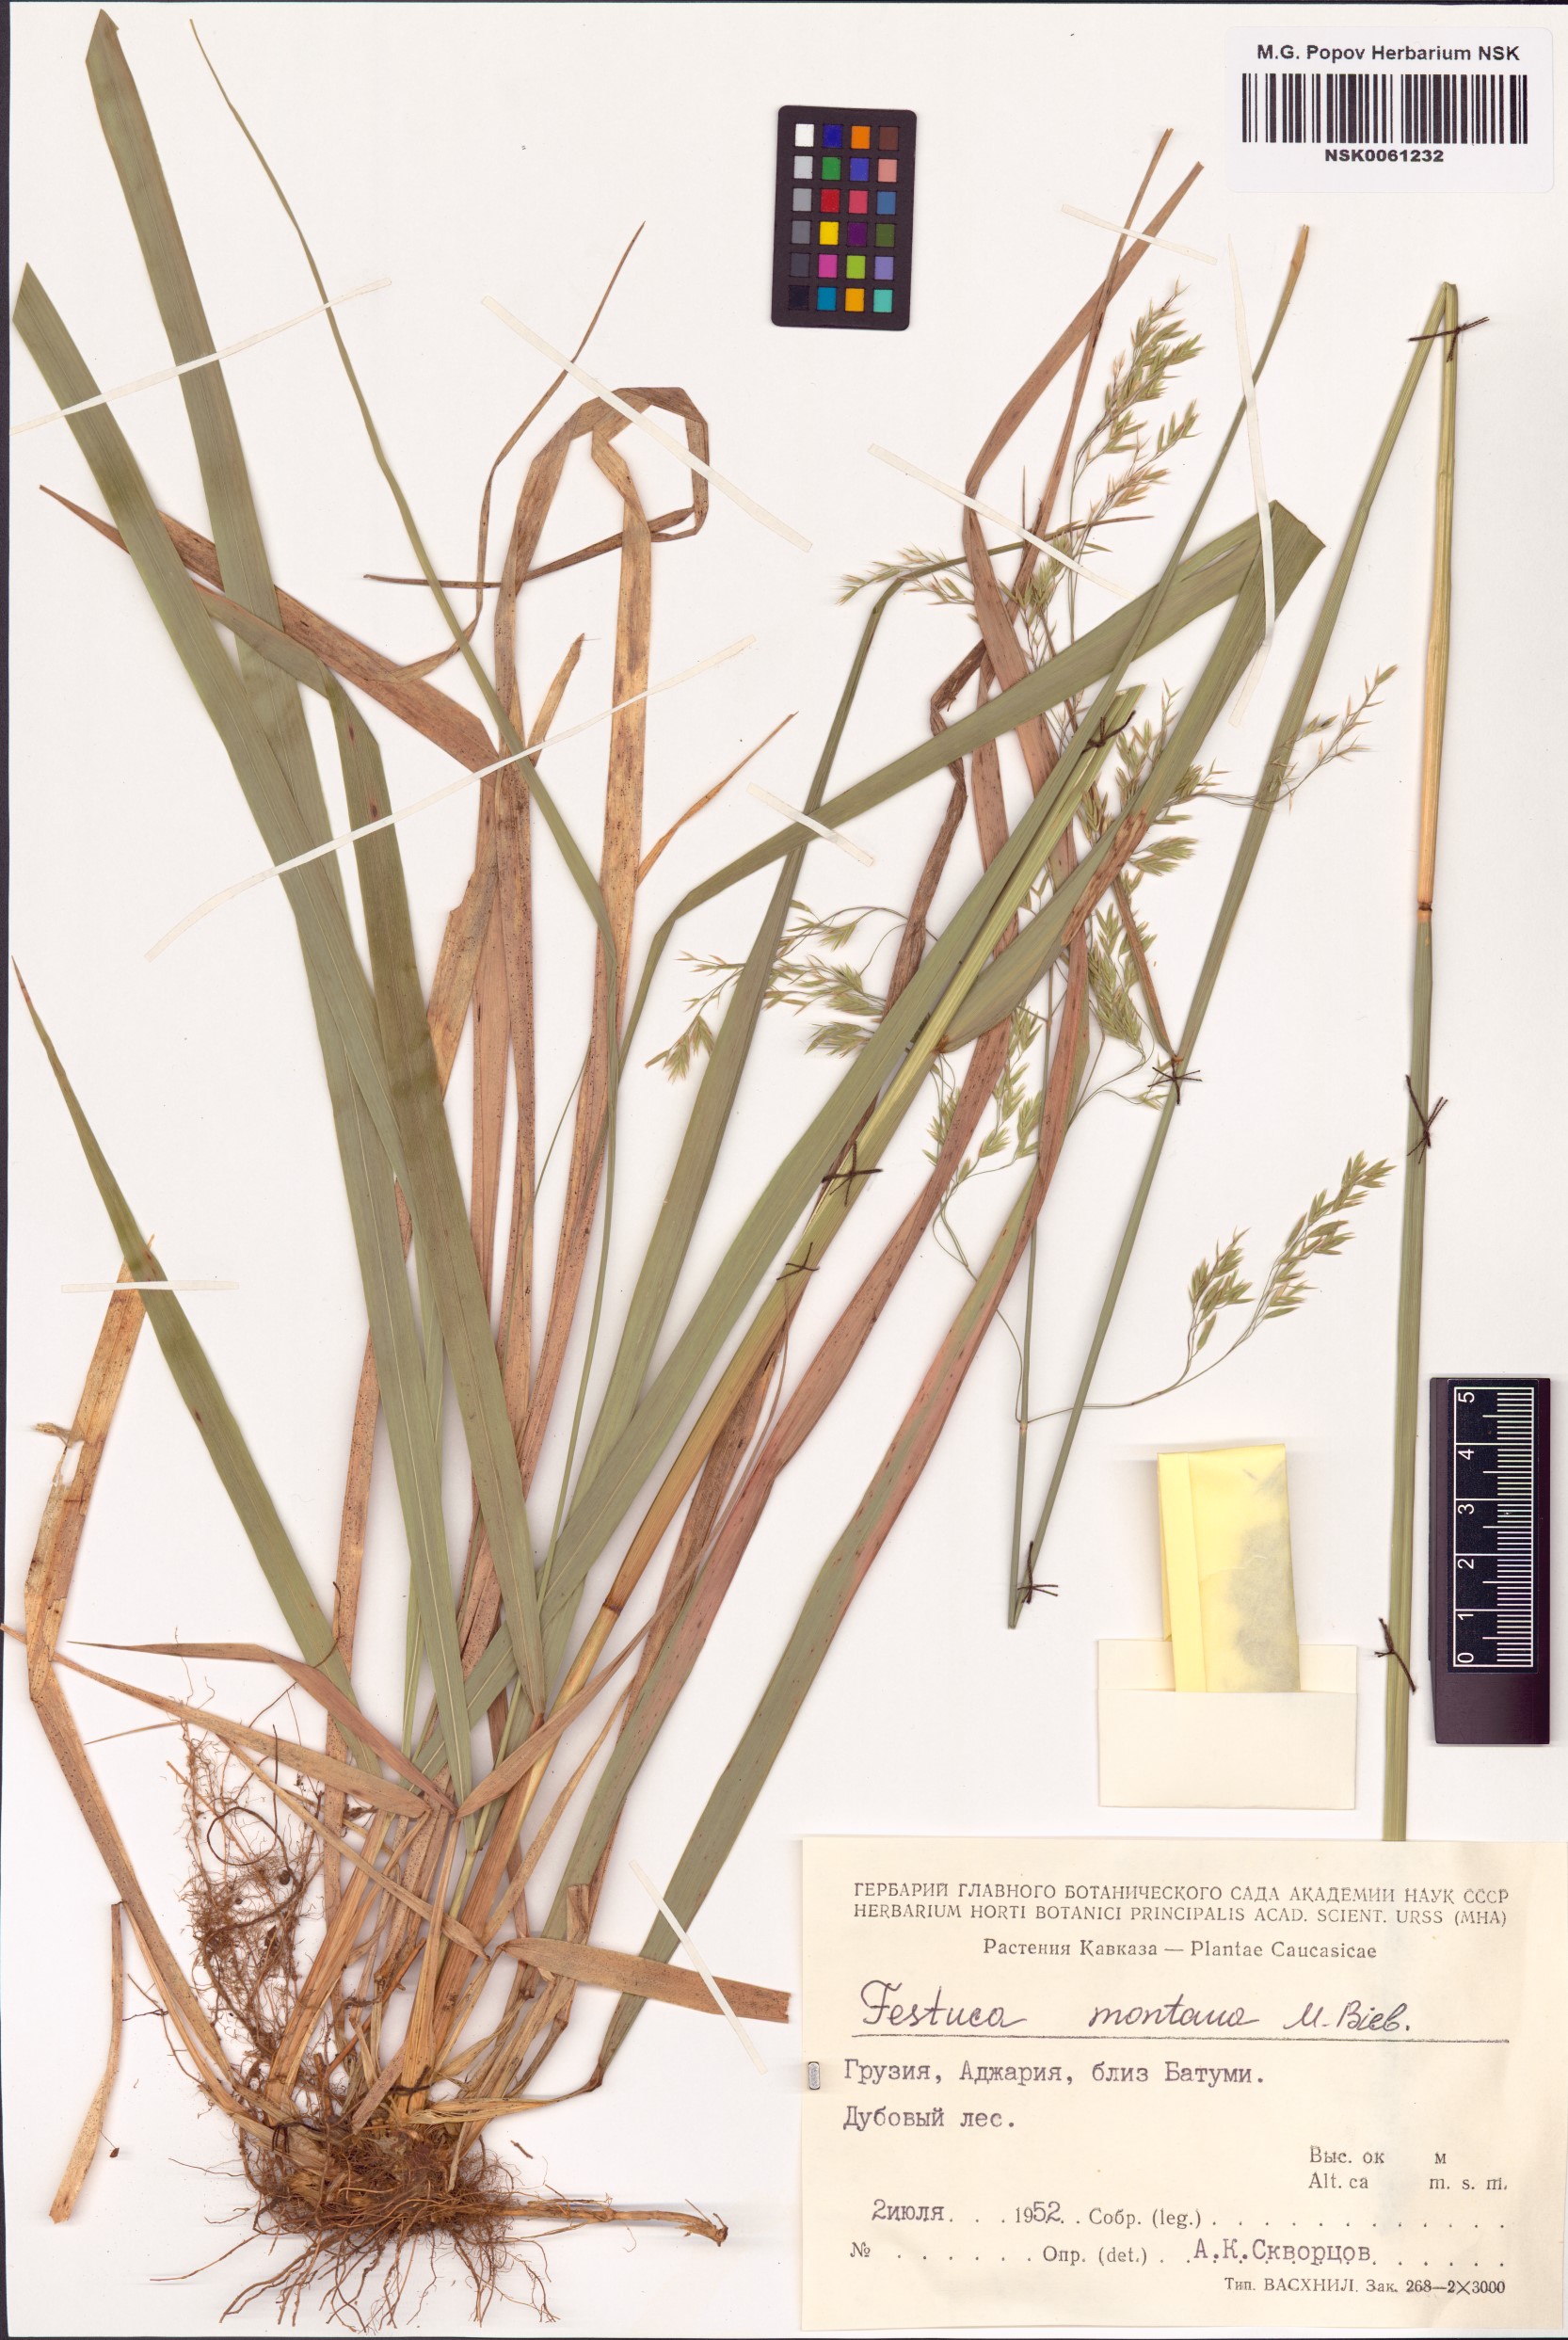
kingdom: Plantae
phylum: Tracheophyta
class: Liliopsida
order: Poales
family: Poaceae
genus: Festuca
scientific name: Festuca drymeja
